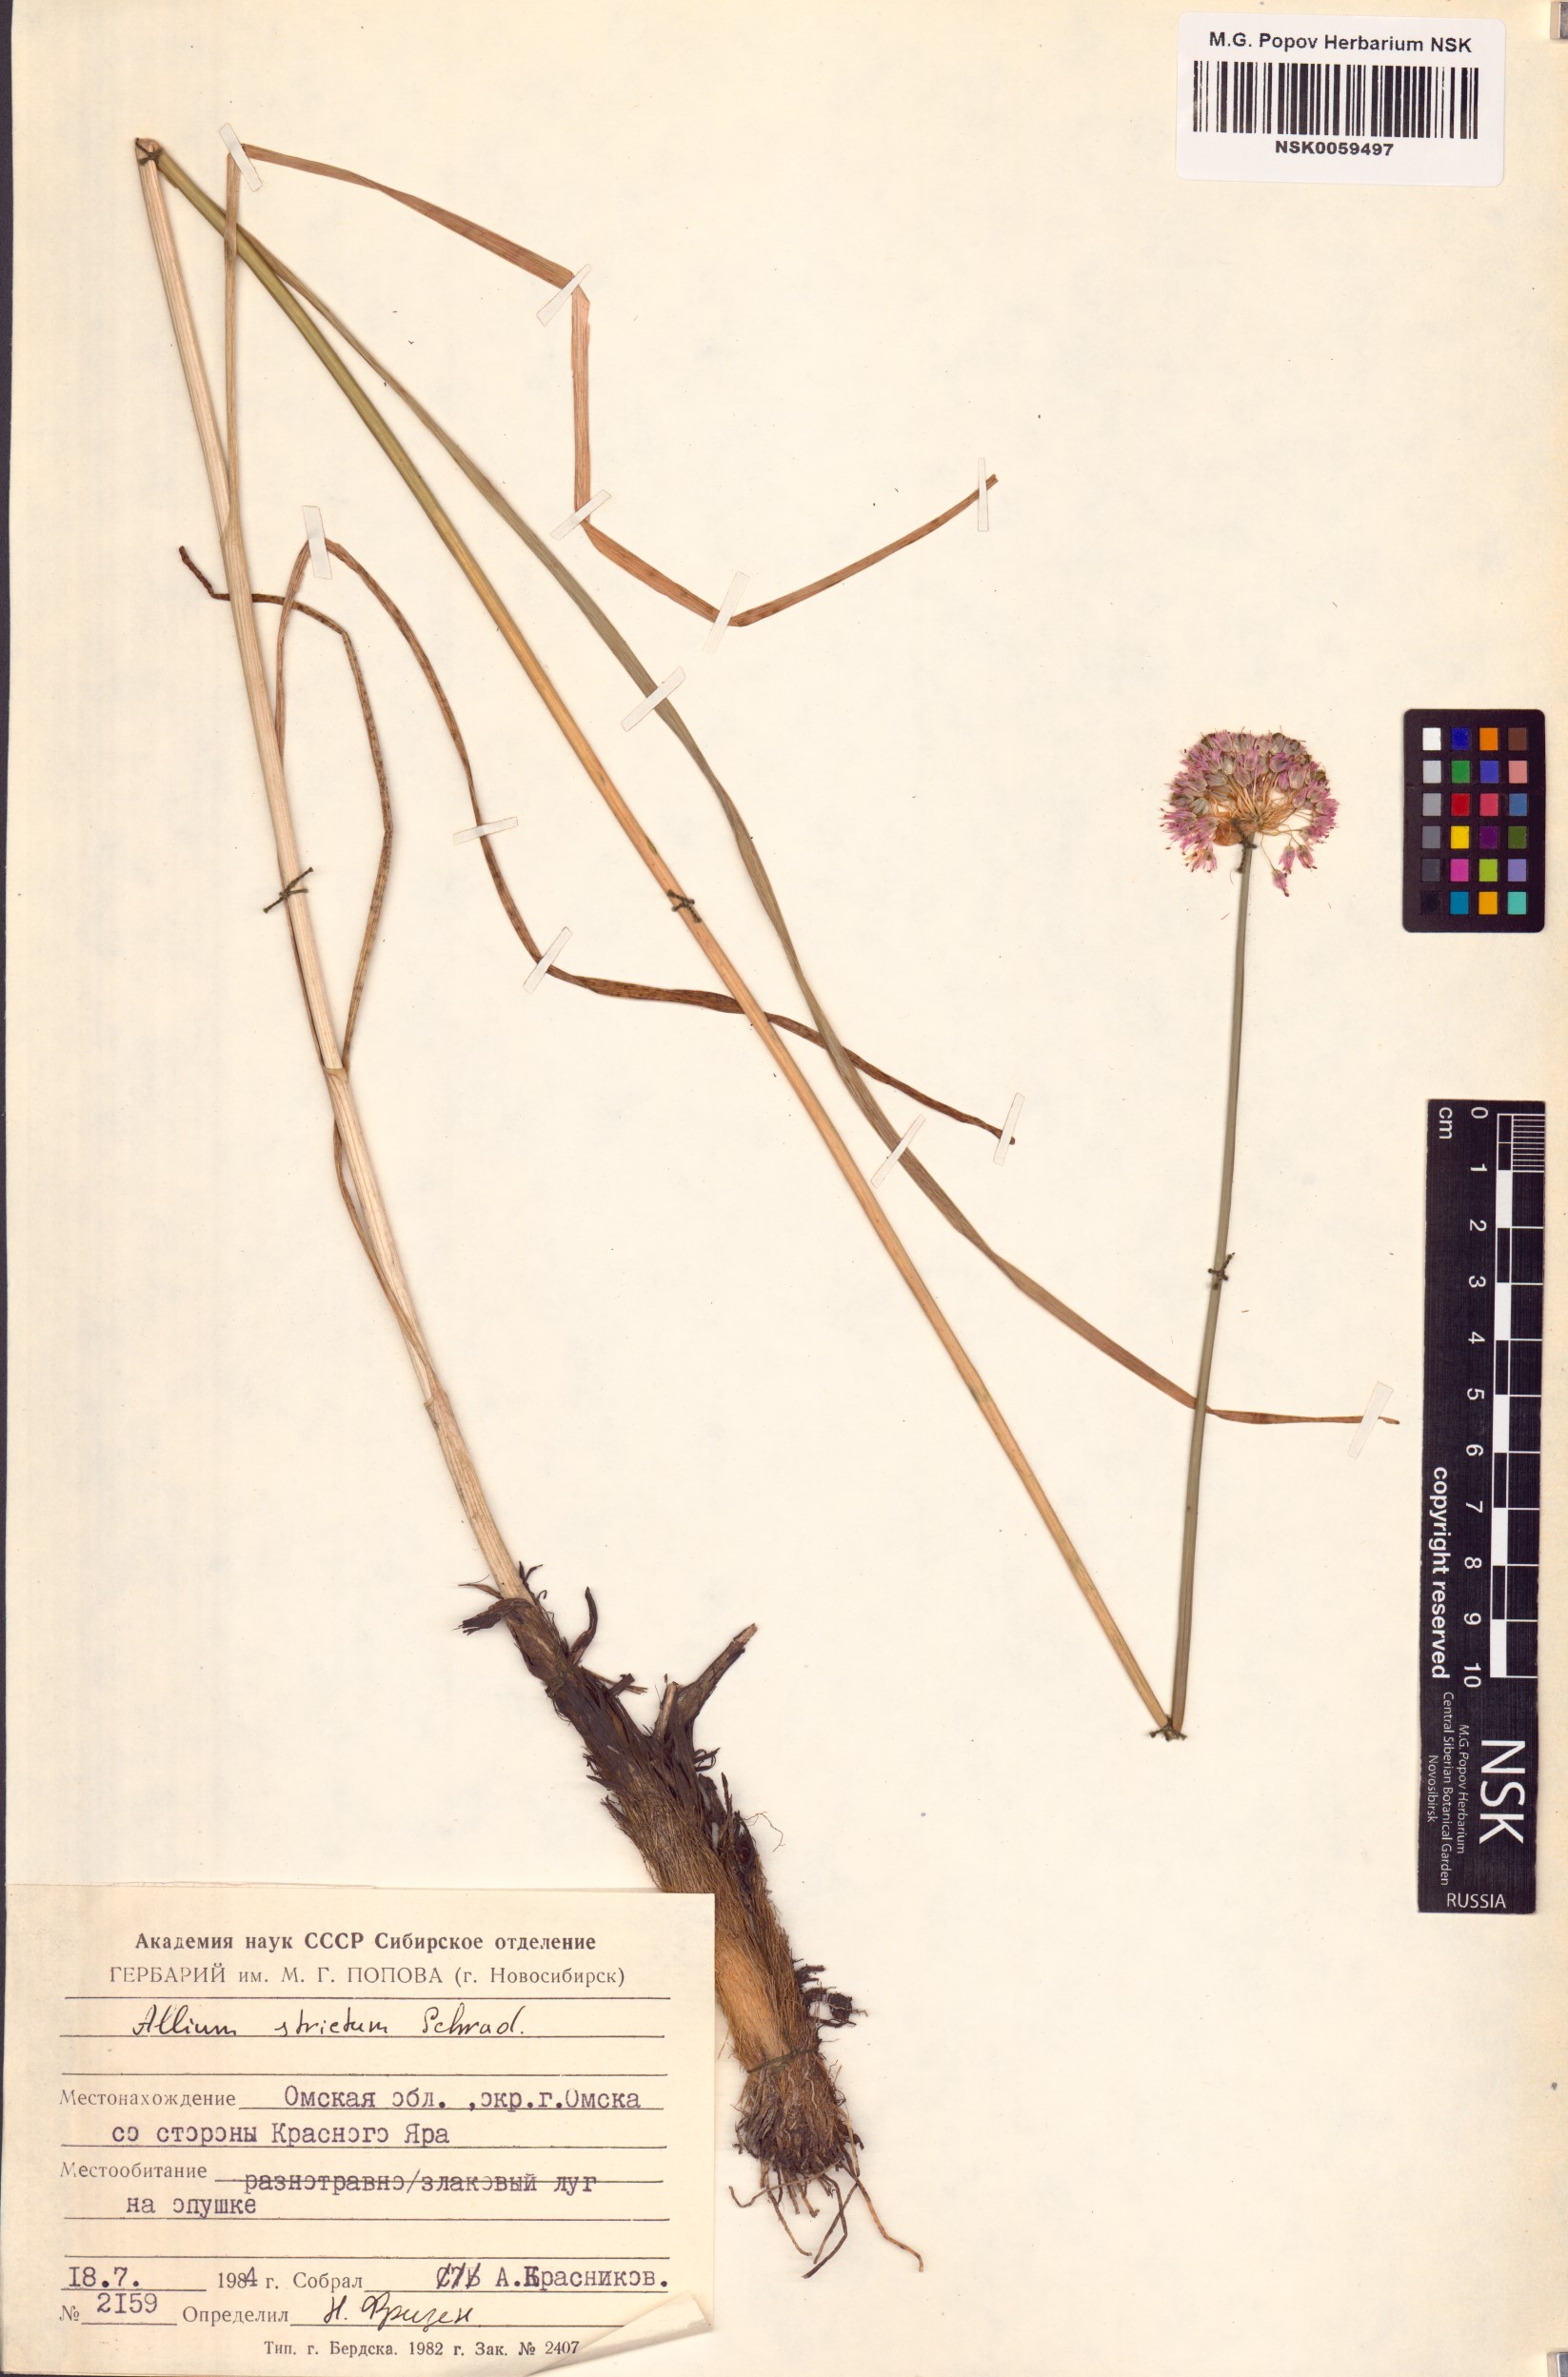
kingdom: Plantae
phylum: Tracheophyta
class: Liliopsida
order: Asparagales
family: Amaryllidaceae
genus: Allium
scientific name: Allium strictum
